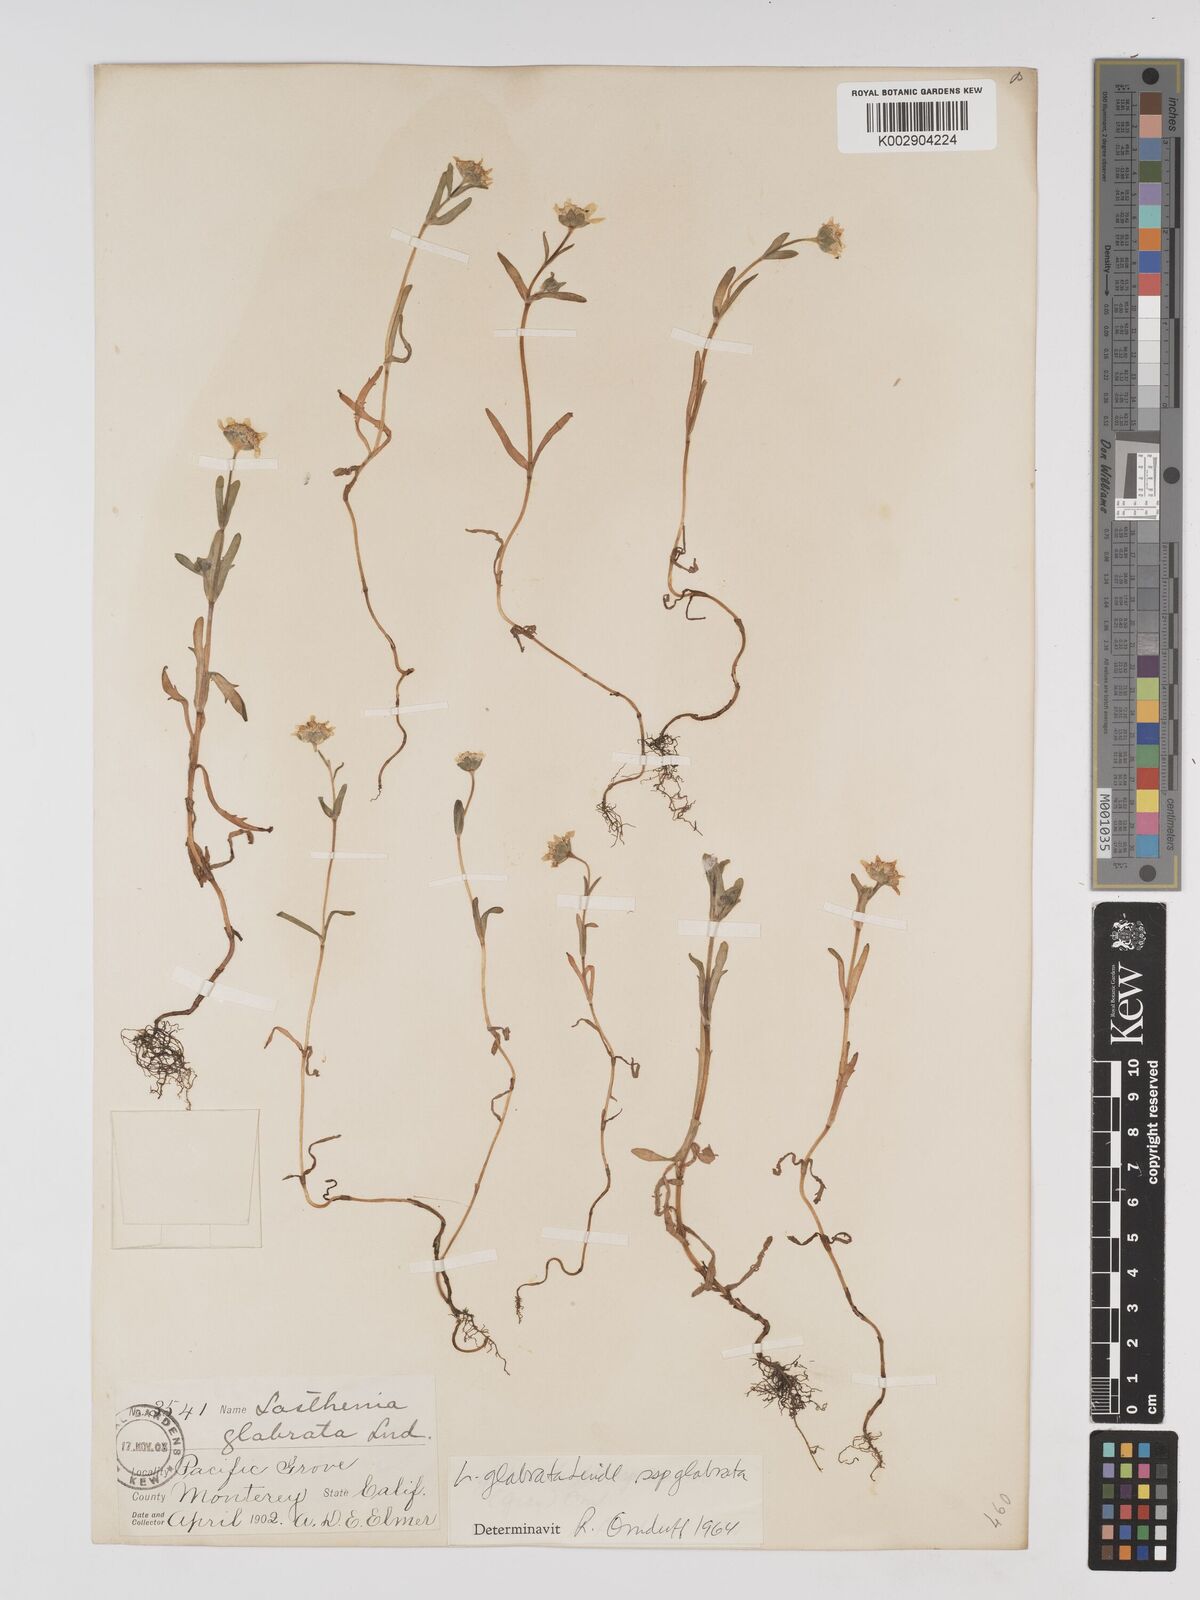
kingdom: Plantae
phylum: Tracheophyta
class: Magnoliopsida
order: Asterales
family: Asteraceae
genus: Lasthenia
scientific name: Lasthenia glabrata
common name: Yellow-ray lasthenia
